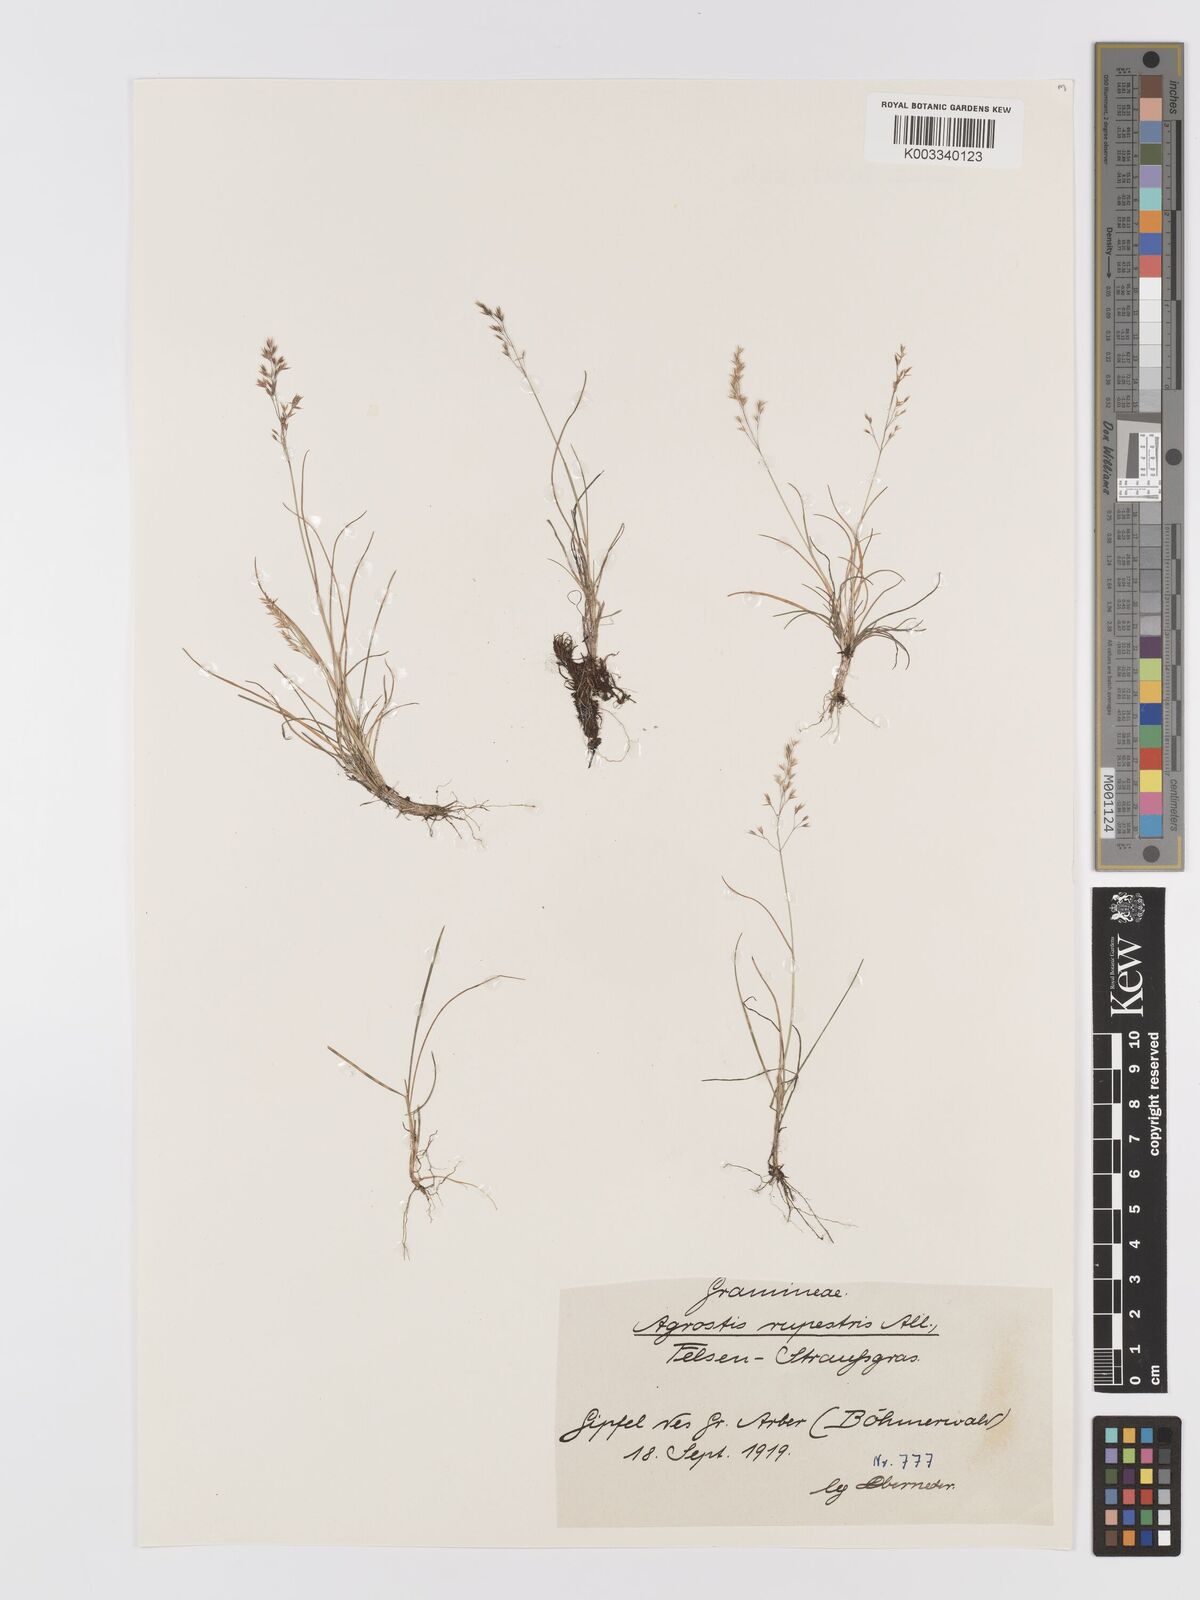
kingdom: Plantae
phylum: Tracheophyta
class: Liliopsida
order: Poales
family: Poaceae
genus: Agrostis
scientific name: Agrostis rupestris
